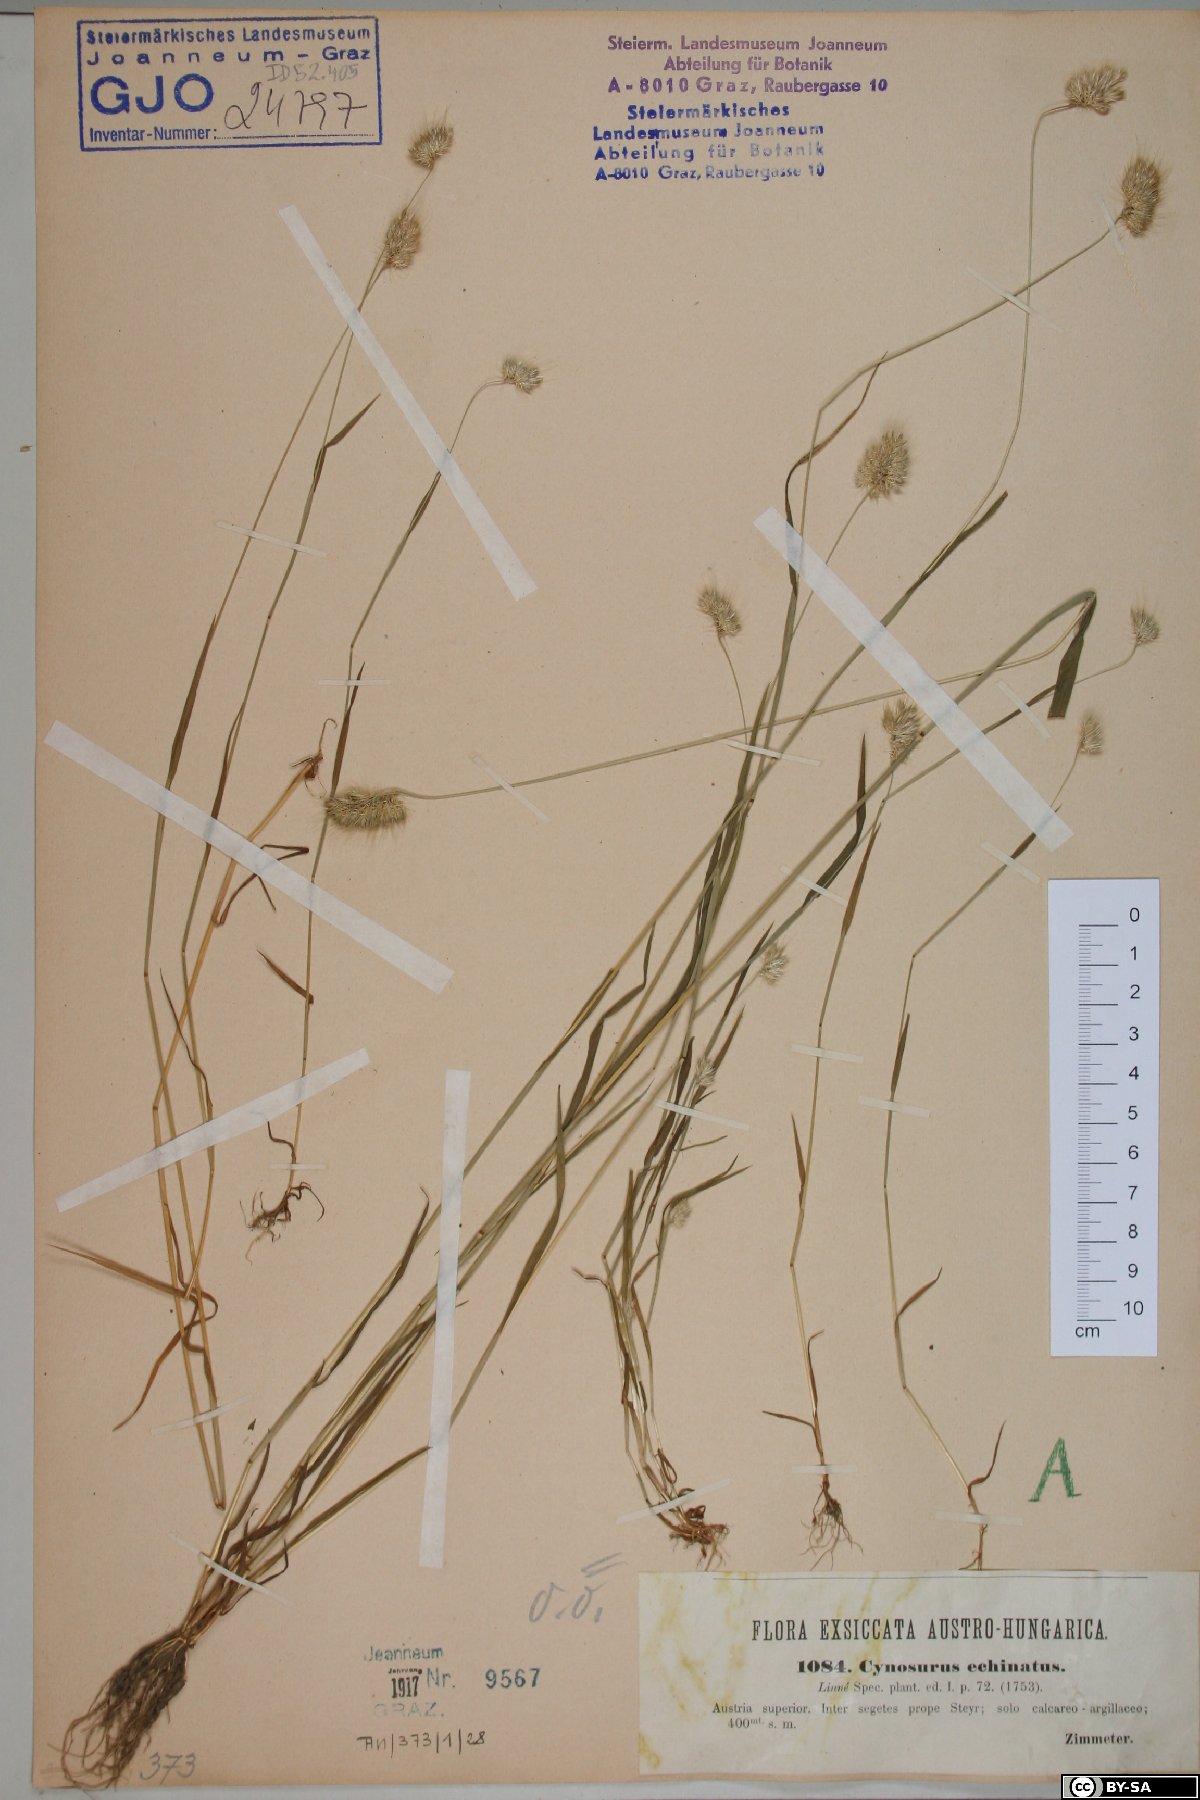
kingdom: Plantae
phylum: Tracheophyta
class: Liliopsida
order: Poales
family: Poaceae
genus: Cynosurus
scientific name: Cynosurus echinatus
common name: Rough dog's-tail
